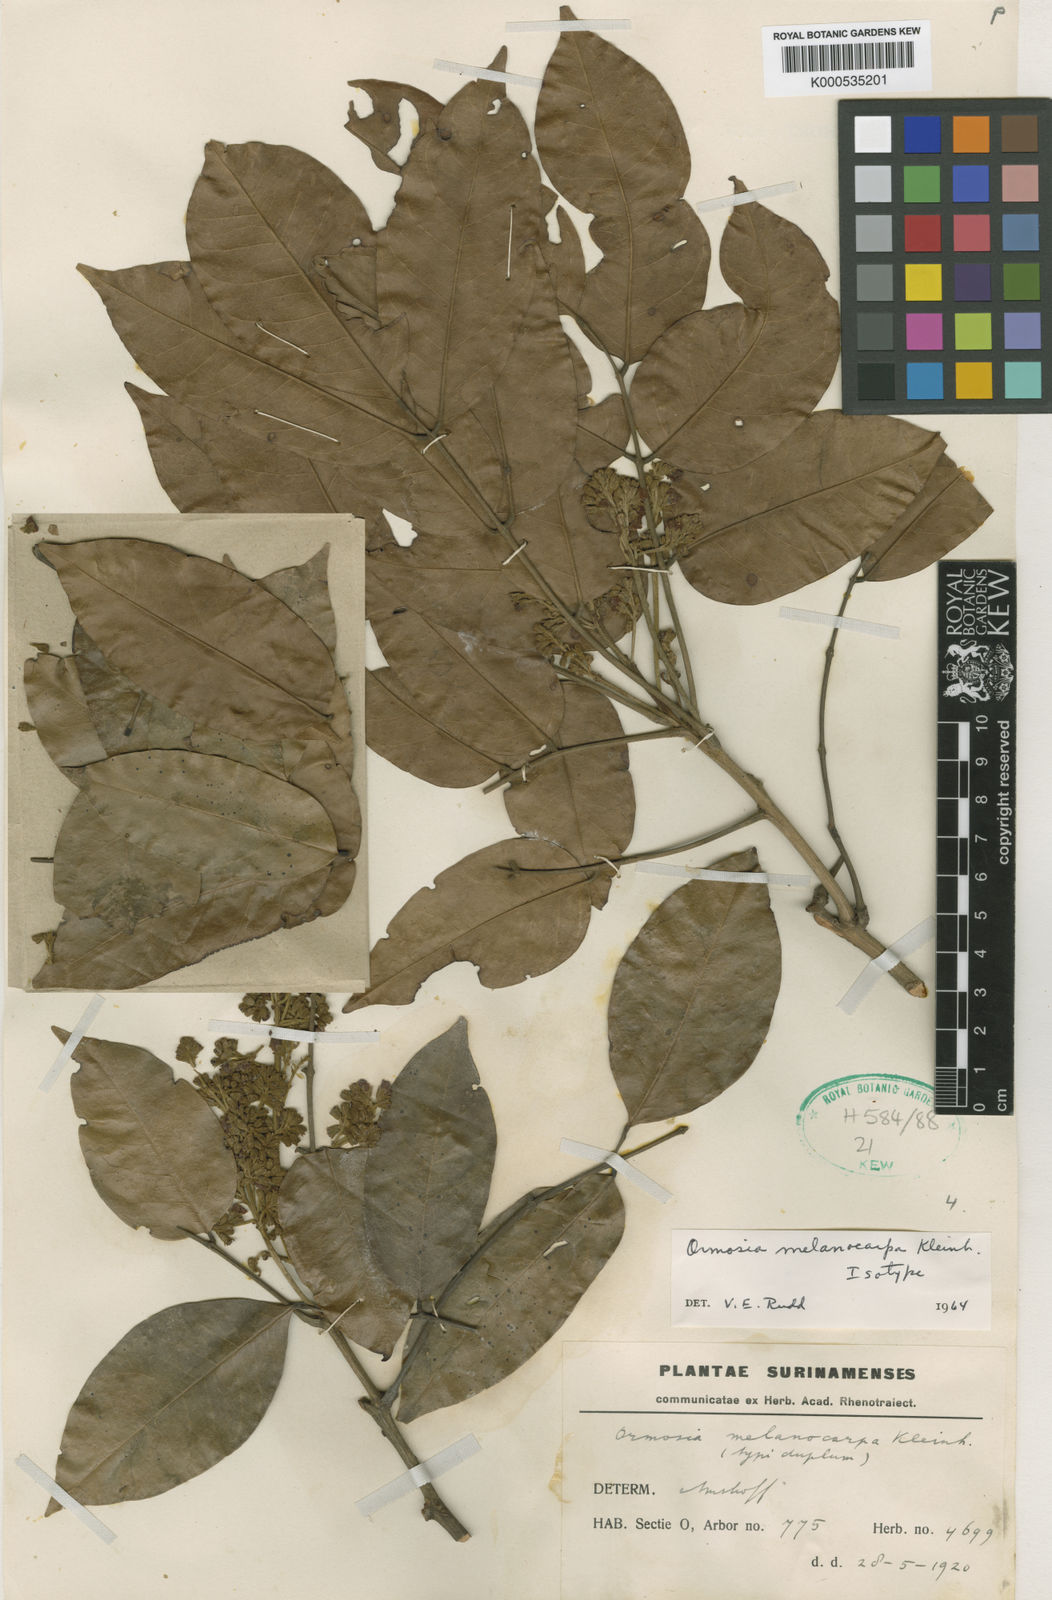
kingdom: Plantae
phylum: Tracheophyta
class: Magnoliopsida
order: Fabales
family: Fabaceae
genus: Ormosia
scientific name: Ormosia melanocarpa
